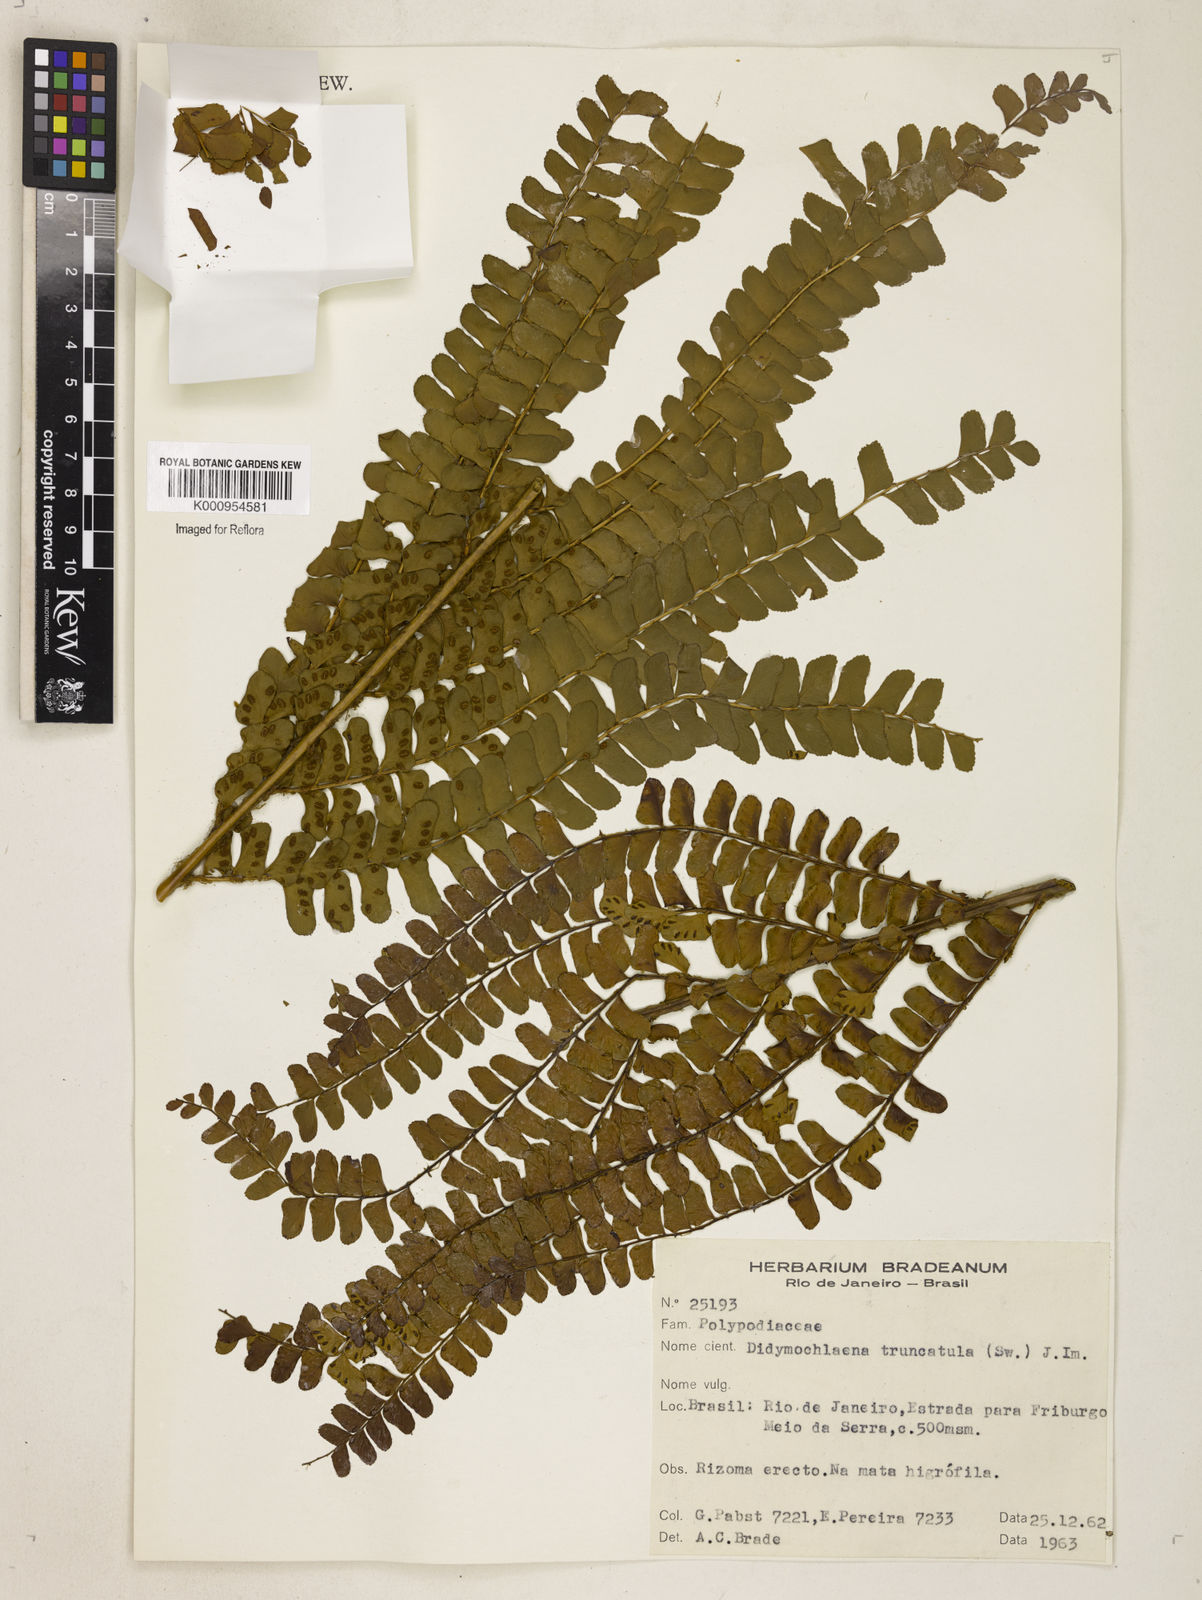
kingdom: Plantae
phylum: Tracheophyta
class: Polypodiopsida
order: Polypodiales
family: Didymochlaenaceae
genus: Didymochlaena
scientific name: Didymochlaena truncatula
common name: Mahogany fern
